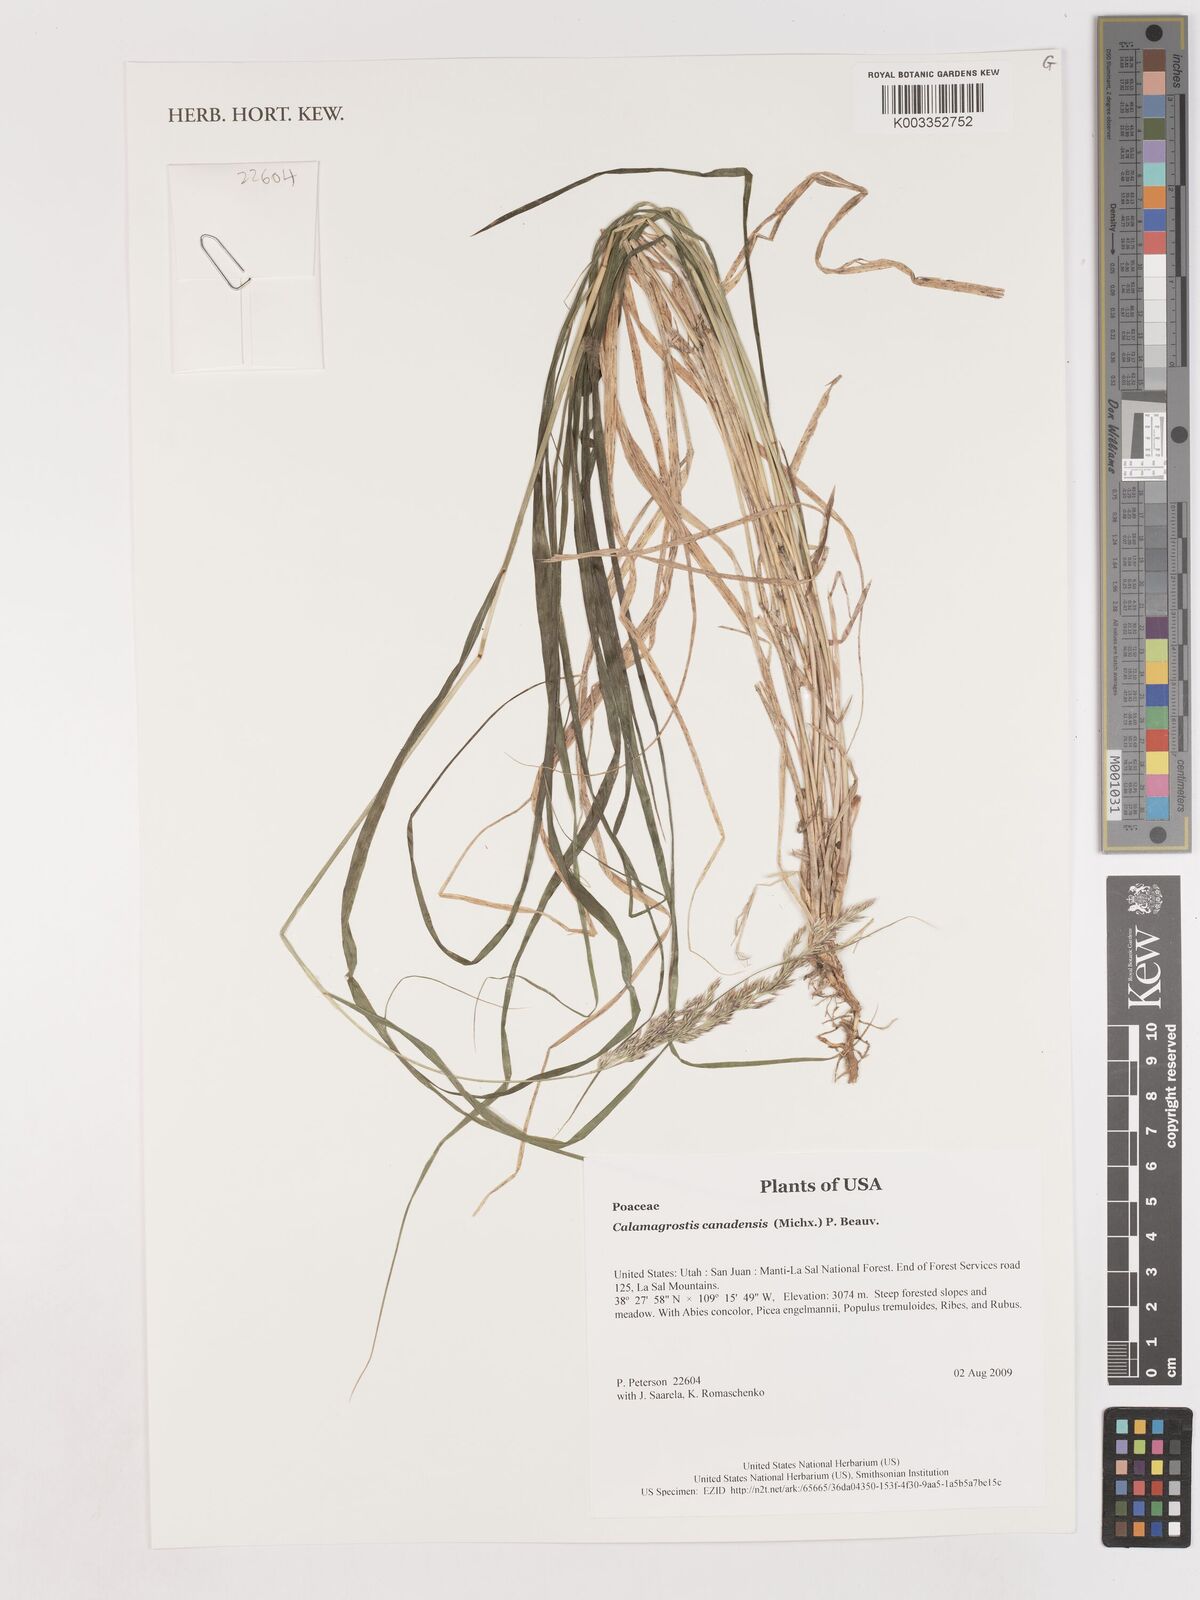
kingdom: Plantae
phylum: Tracheophyta
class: Liliopsida
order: Poales
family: Poaceae
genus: Calamagrostis
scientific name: Calamagrostis canadensis
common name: Canada bluejoint
